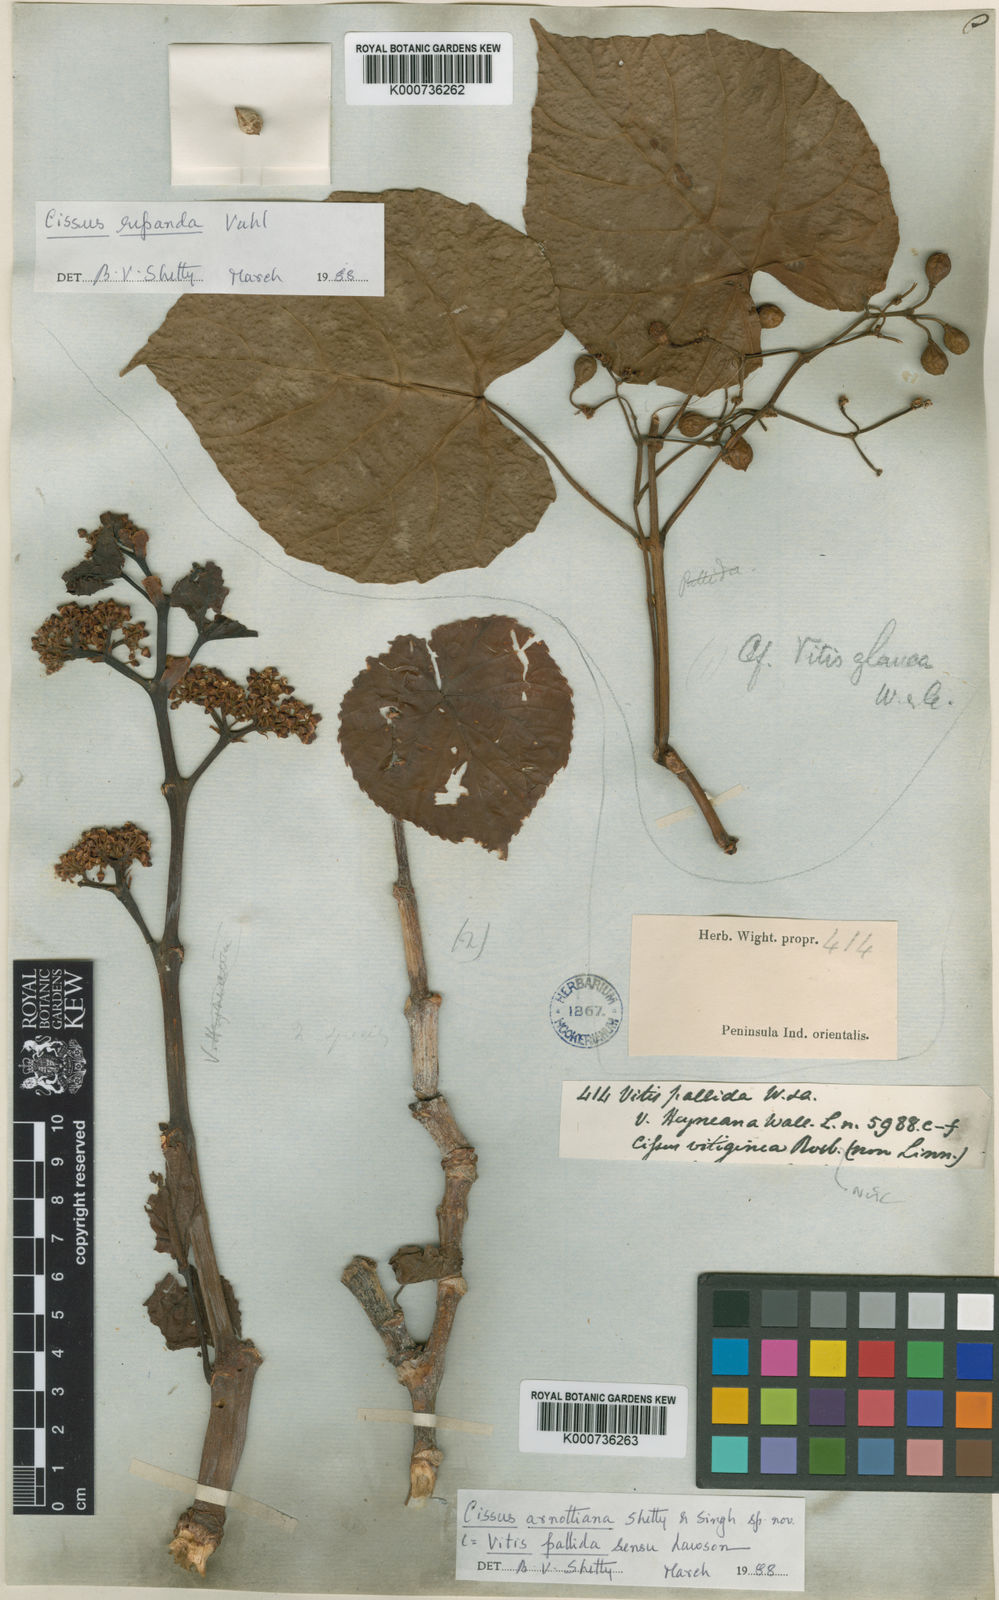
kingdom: Plantae
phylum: Tracheophyta
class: Magnoliopsida
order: Vitales
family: Vitaceae
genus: Cissus
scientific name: Cissus
